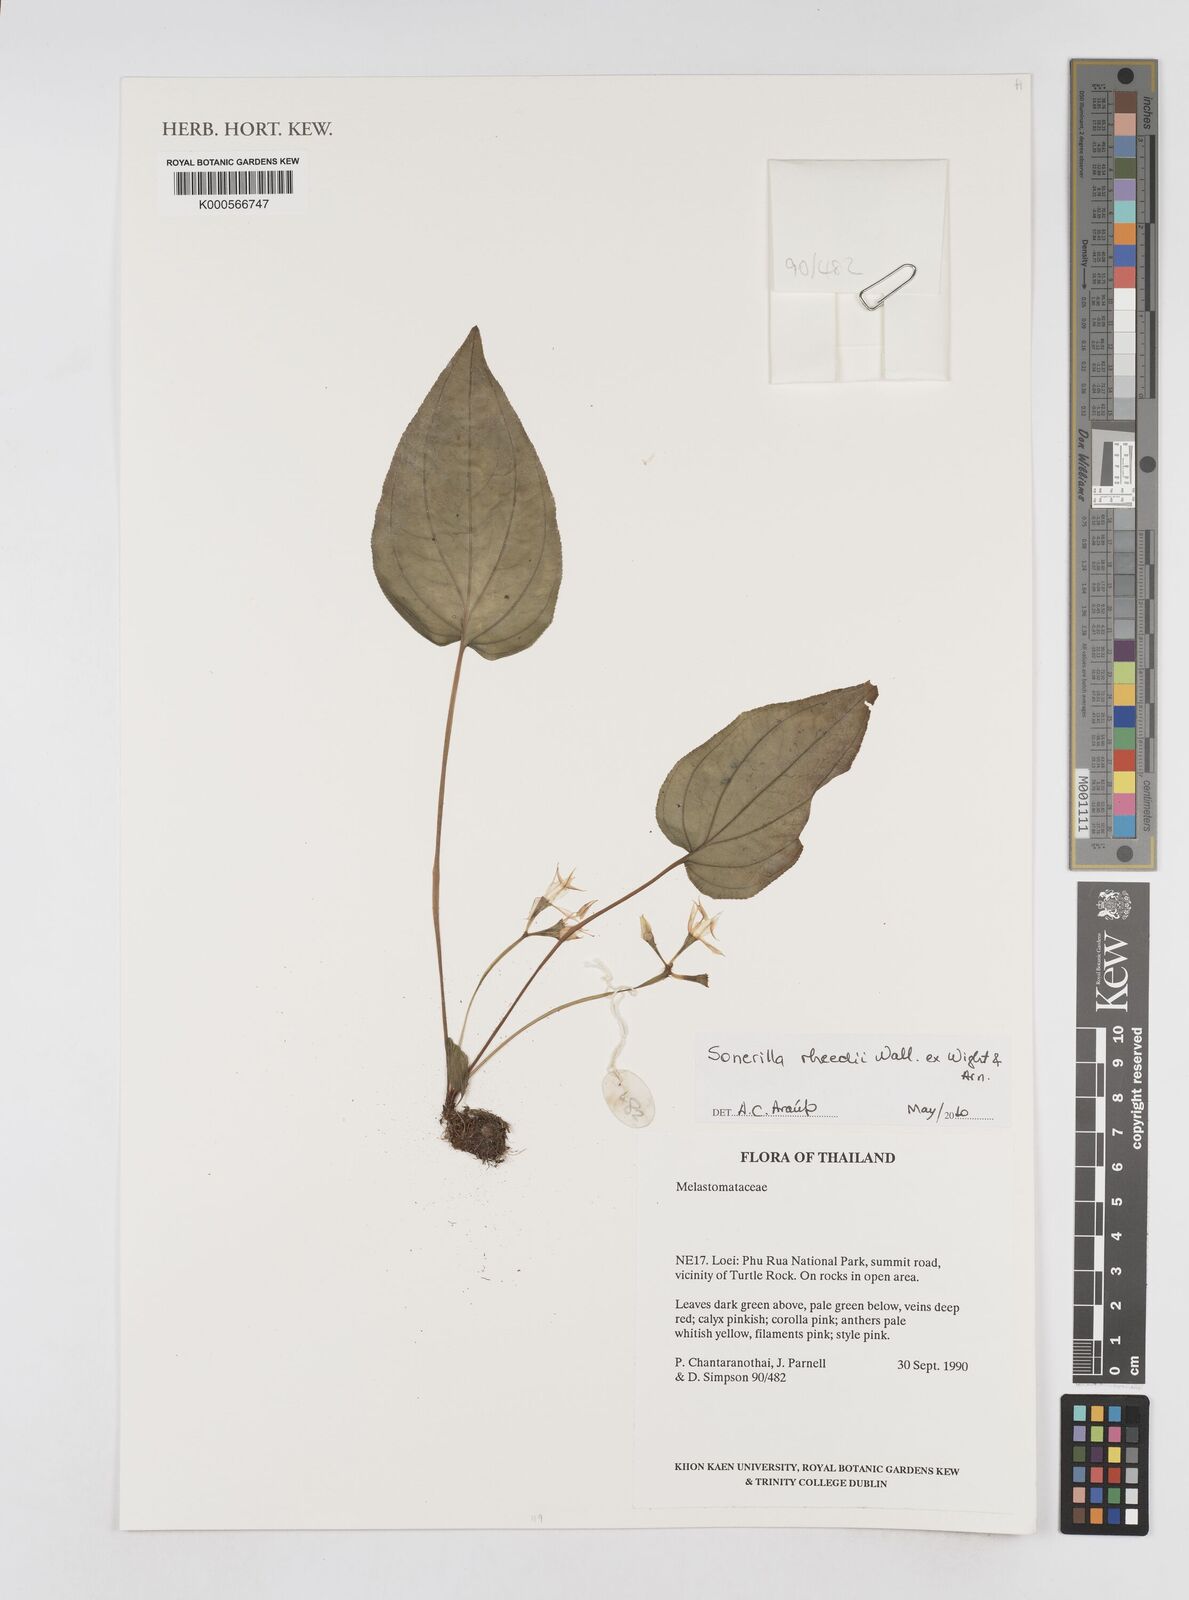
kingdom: Plantae
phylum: Tracheophyta
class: Magnoliopsida
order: Myrtales
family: Melastomataceae
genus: Sonerila
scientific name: Sonerila
